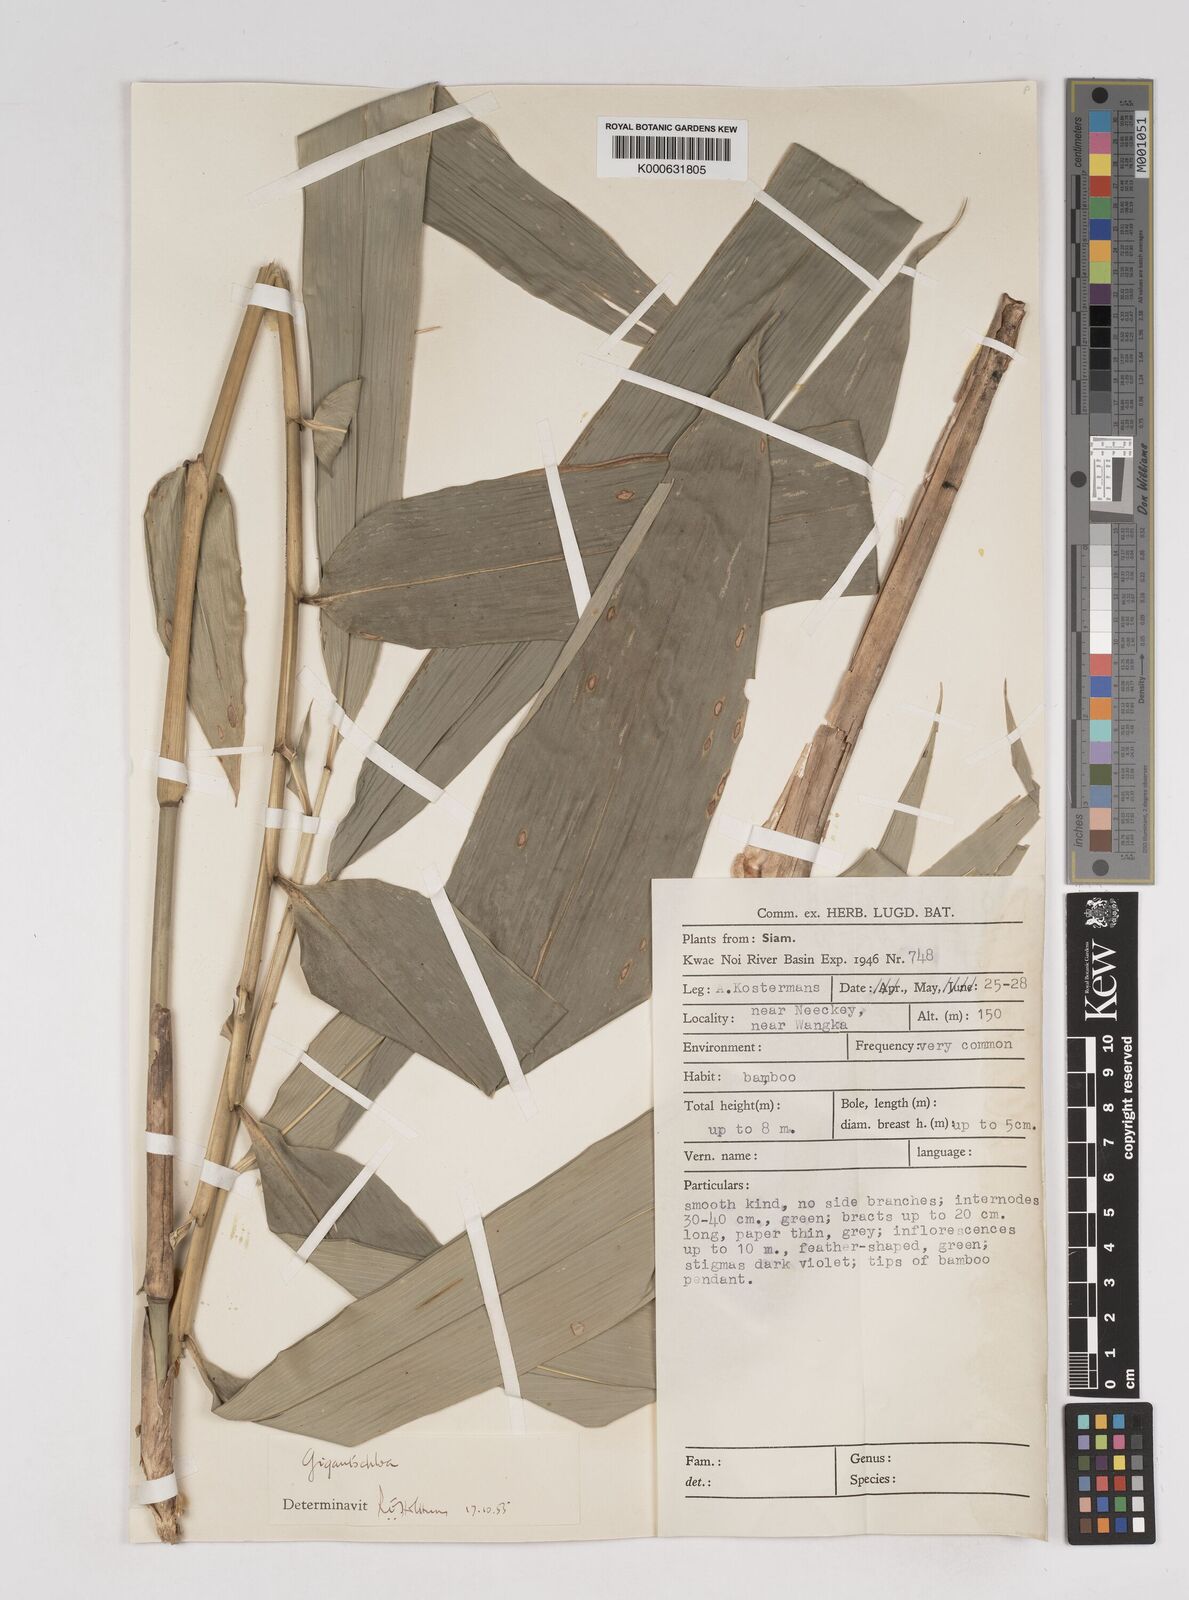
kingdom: Plantae
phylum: Tracheophyta
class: Liliopsida
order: Poales
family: Poaceae
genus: Gigantochloa
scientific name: Gigantochloa
